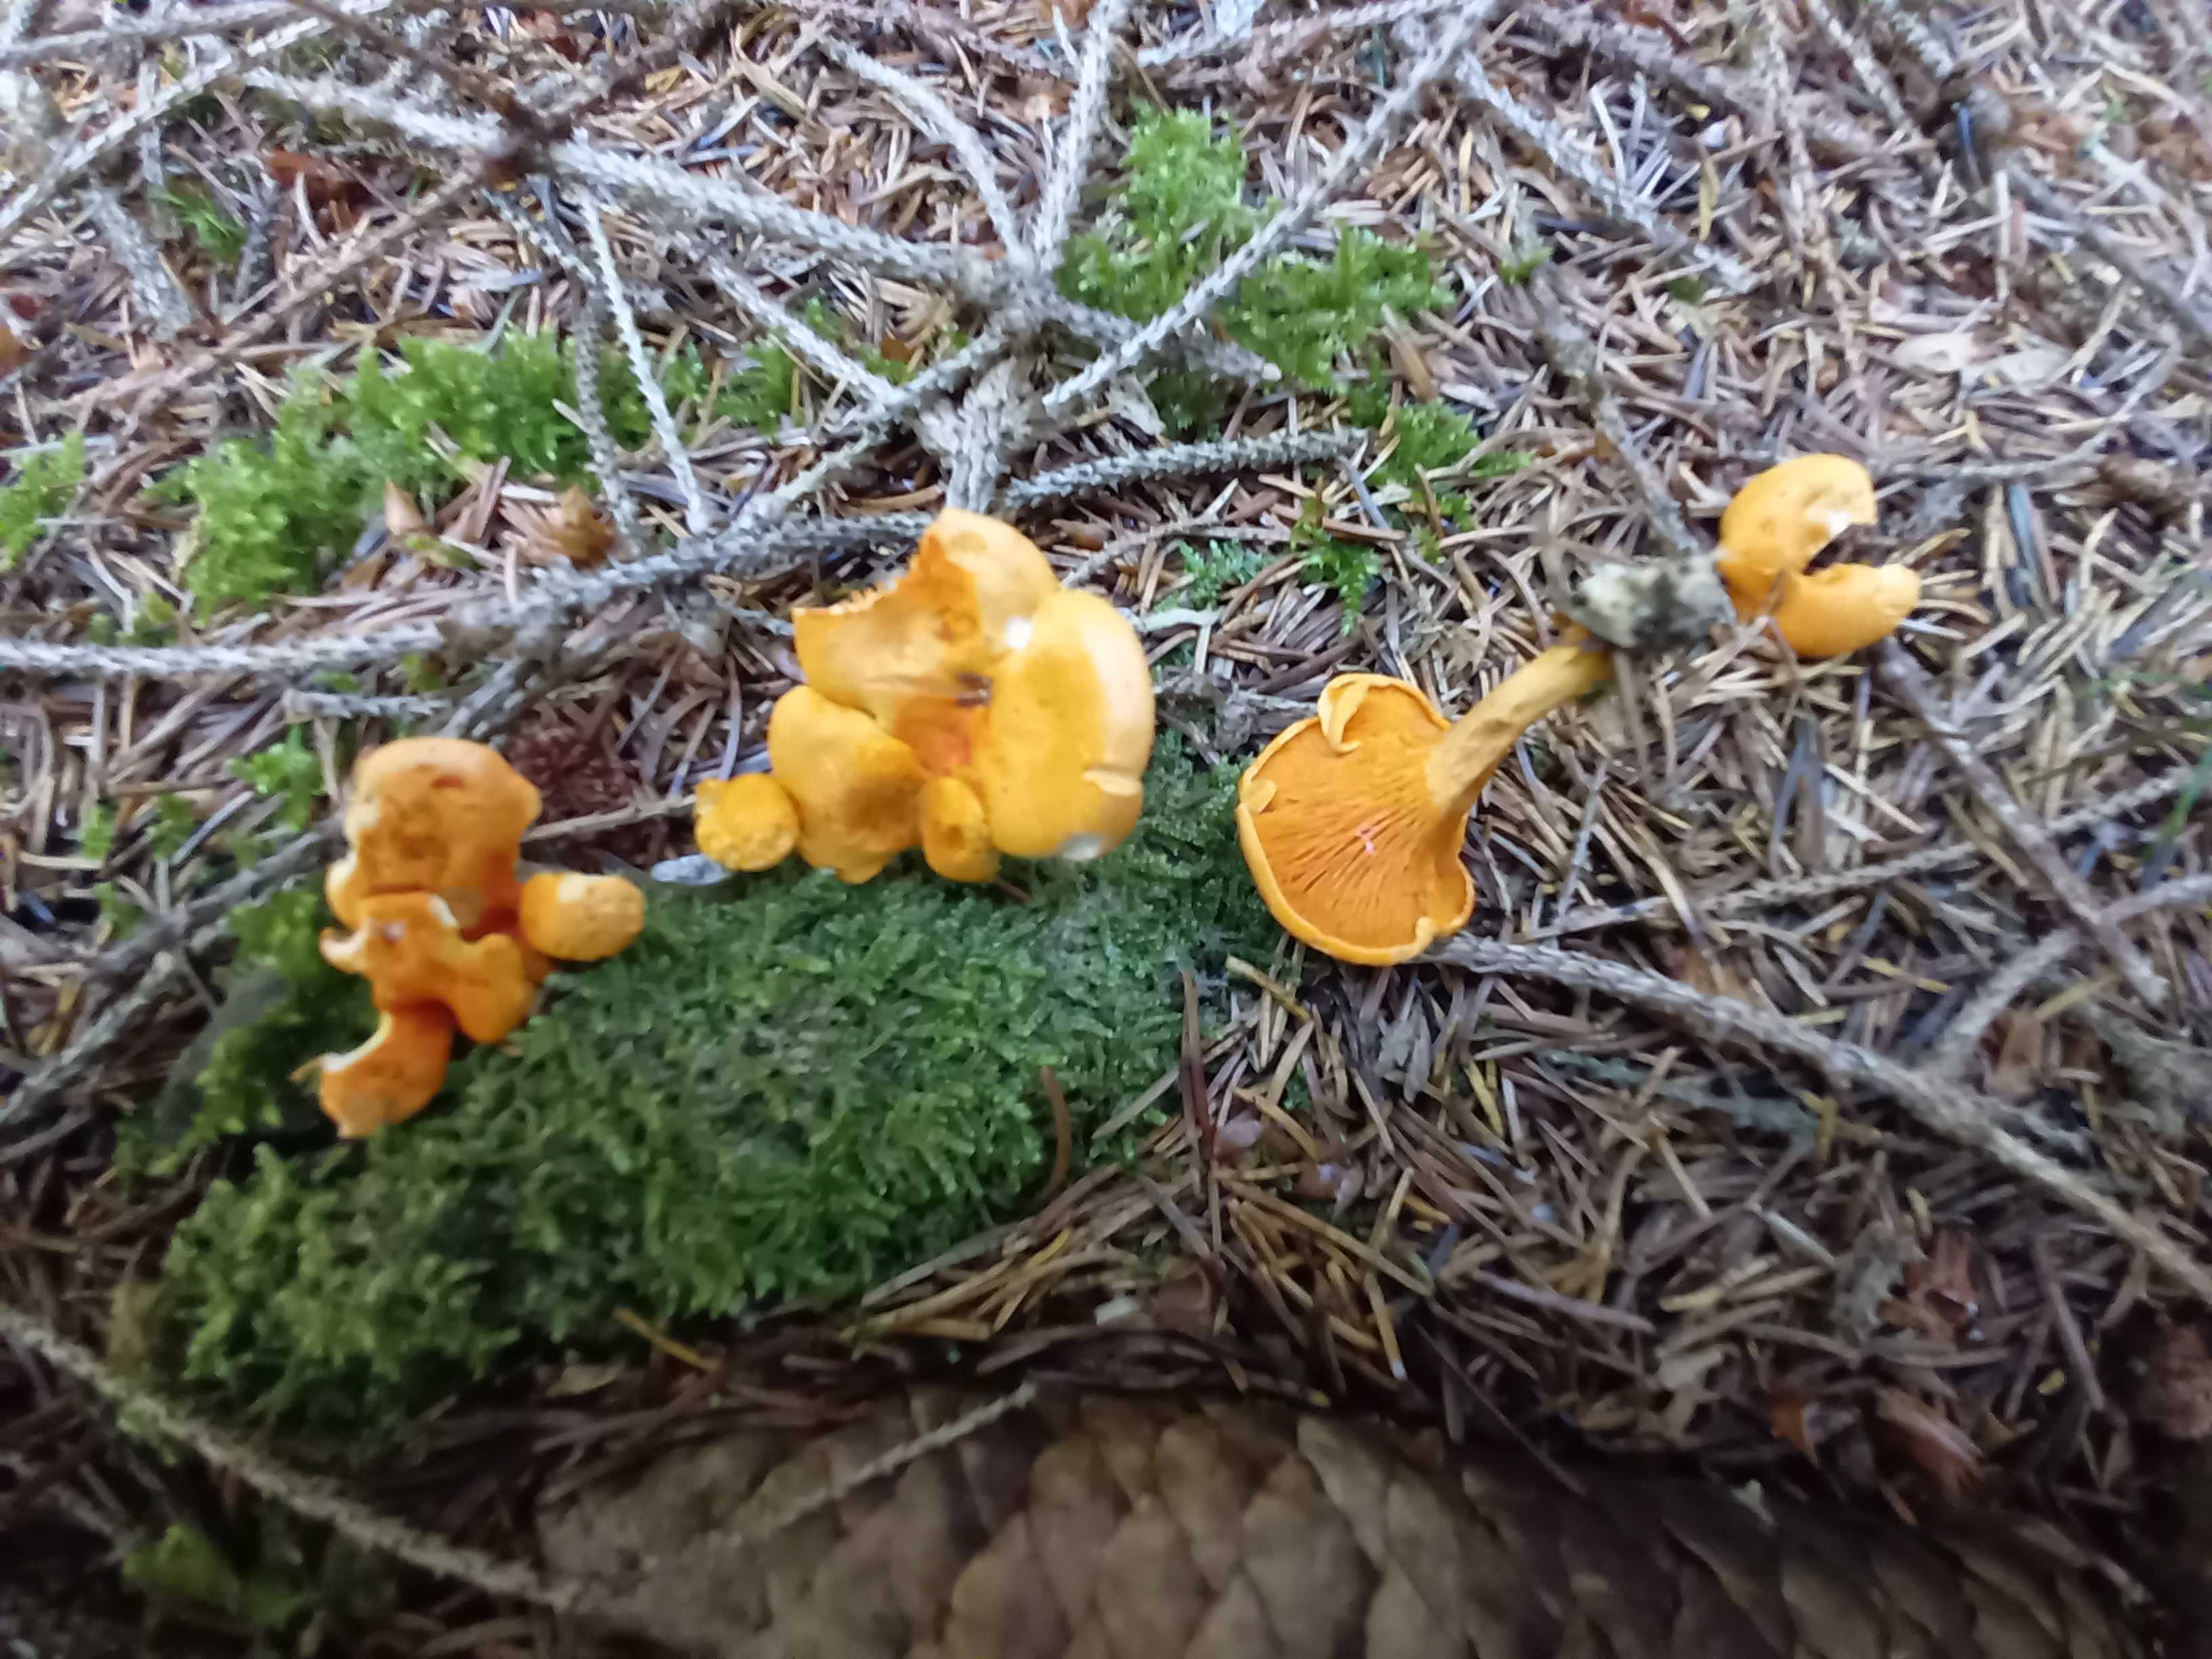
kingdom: Fungi
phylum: Basidiomycota
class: Agaricomycetes
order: Boletales
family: Hygrophoropsidaceae
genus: Hygrophoropsis
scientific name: Hygrophoropsis aurantiaca
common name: almindelig orangekantarel
